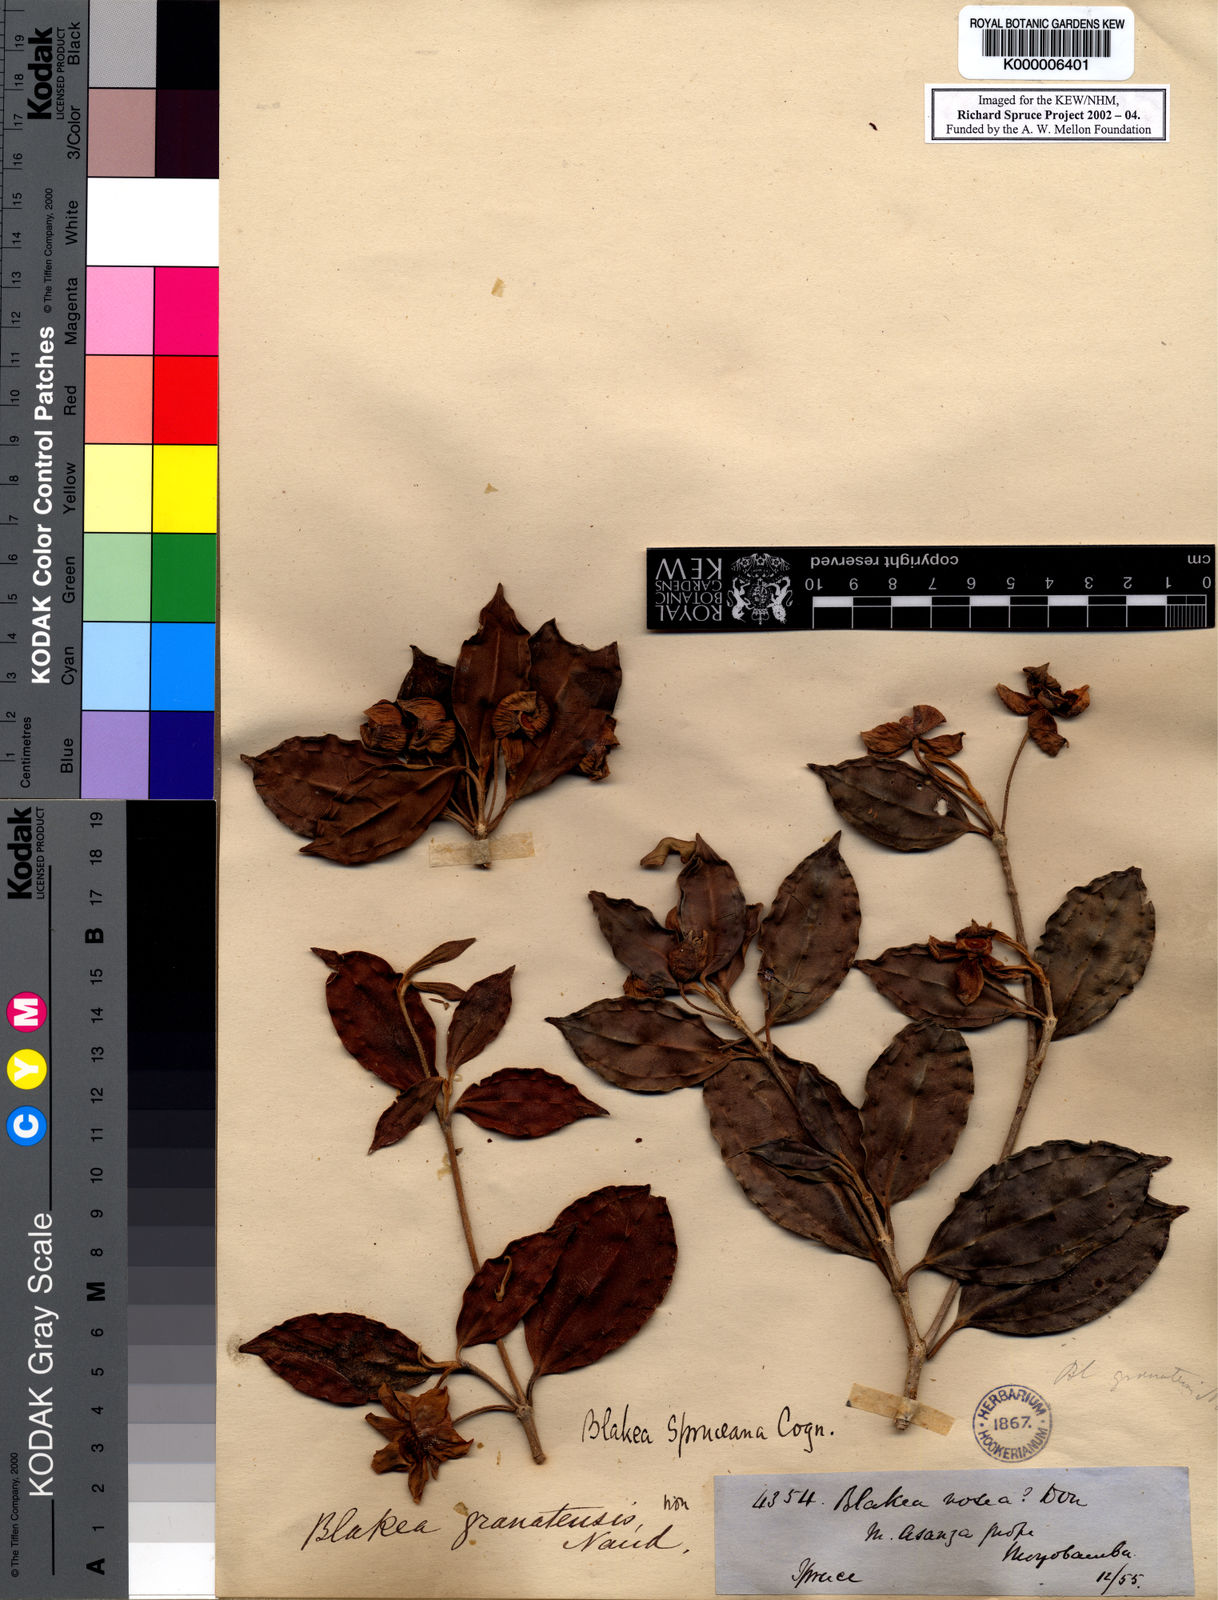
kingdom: Plantae
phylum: Tracheophyta
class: Magnoliopsida
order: Myrtales
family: Melastomataceae
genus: Blakea
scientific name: Blakea spruceana
